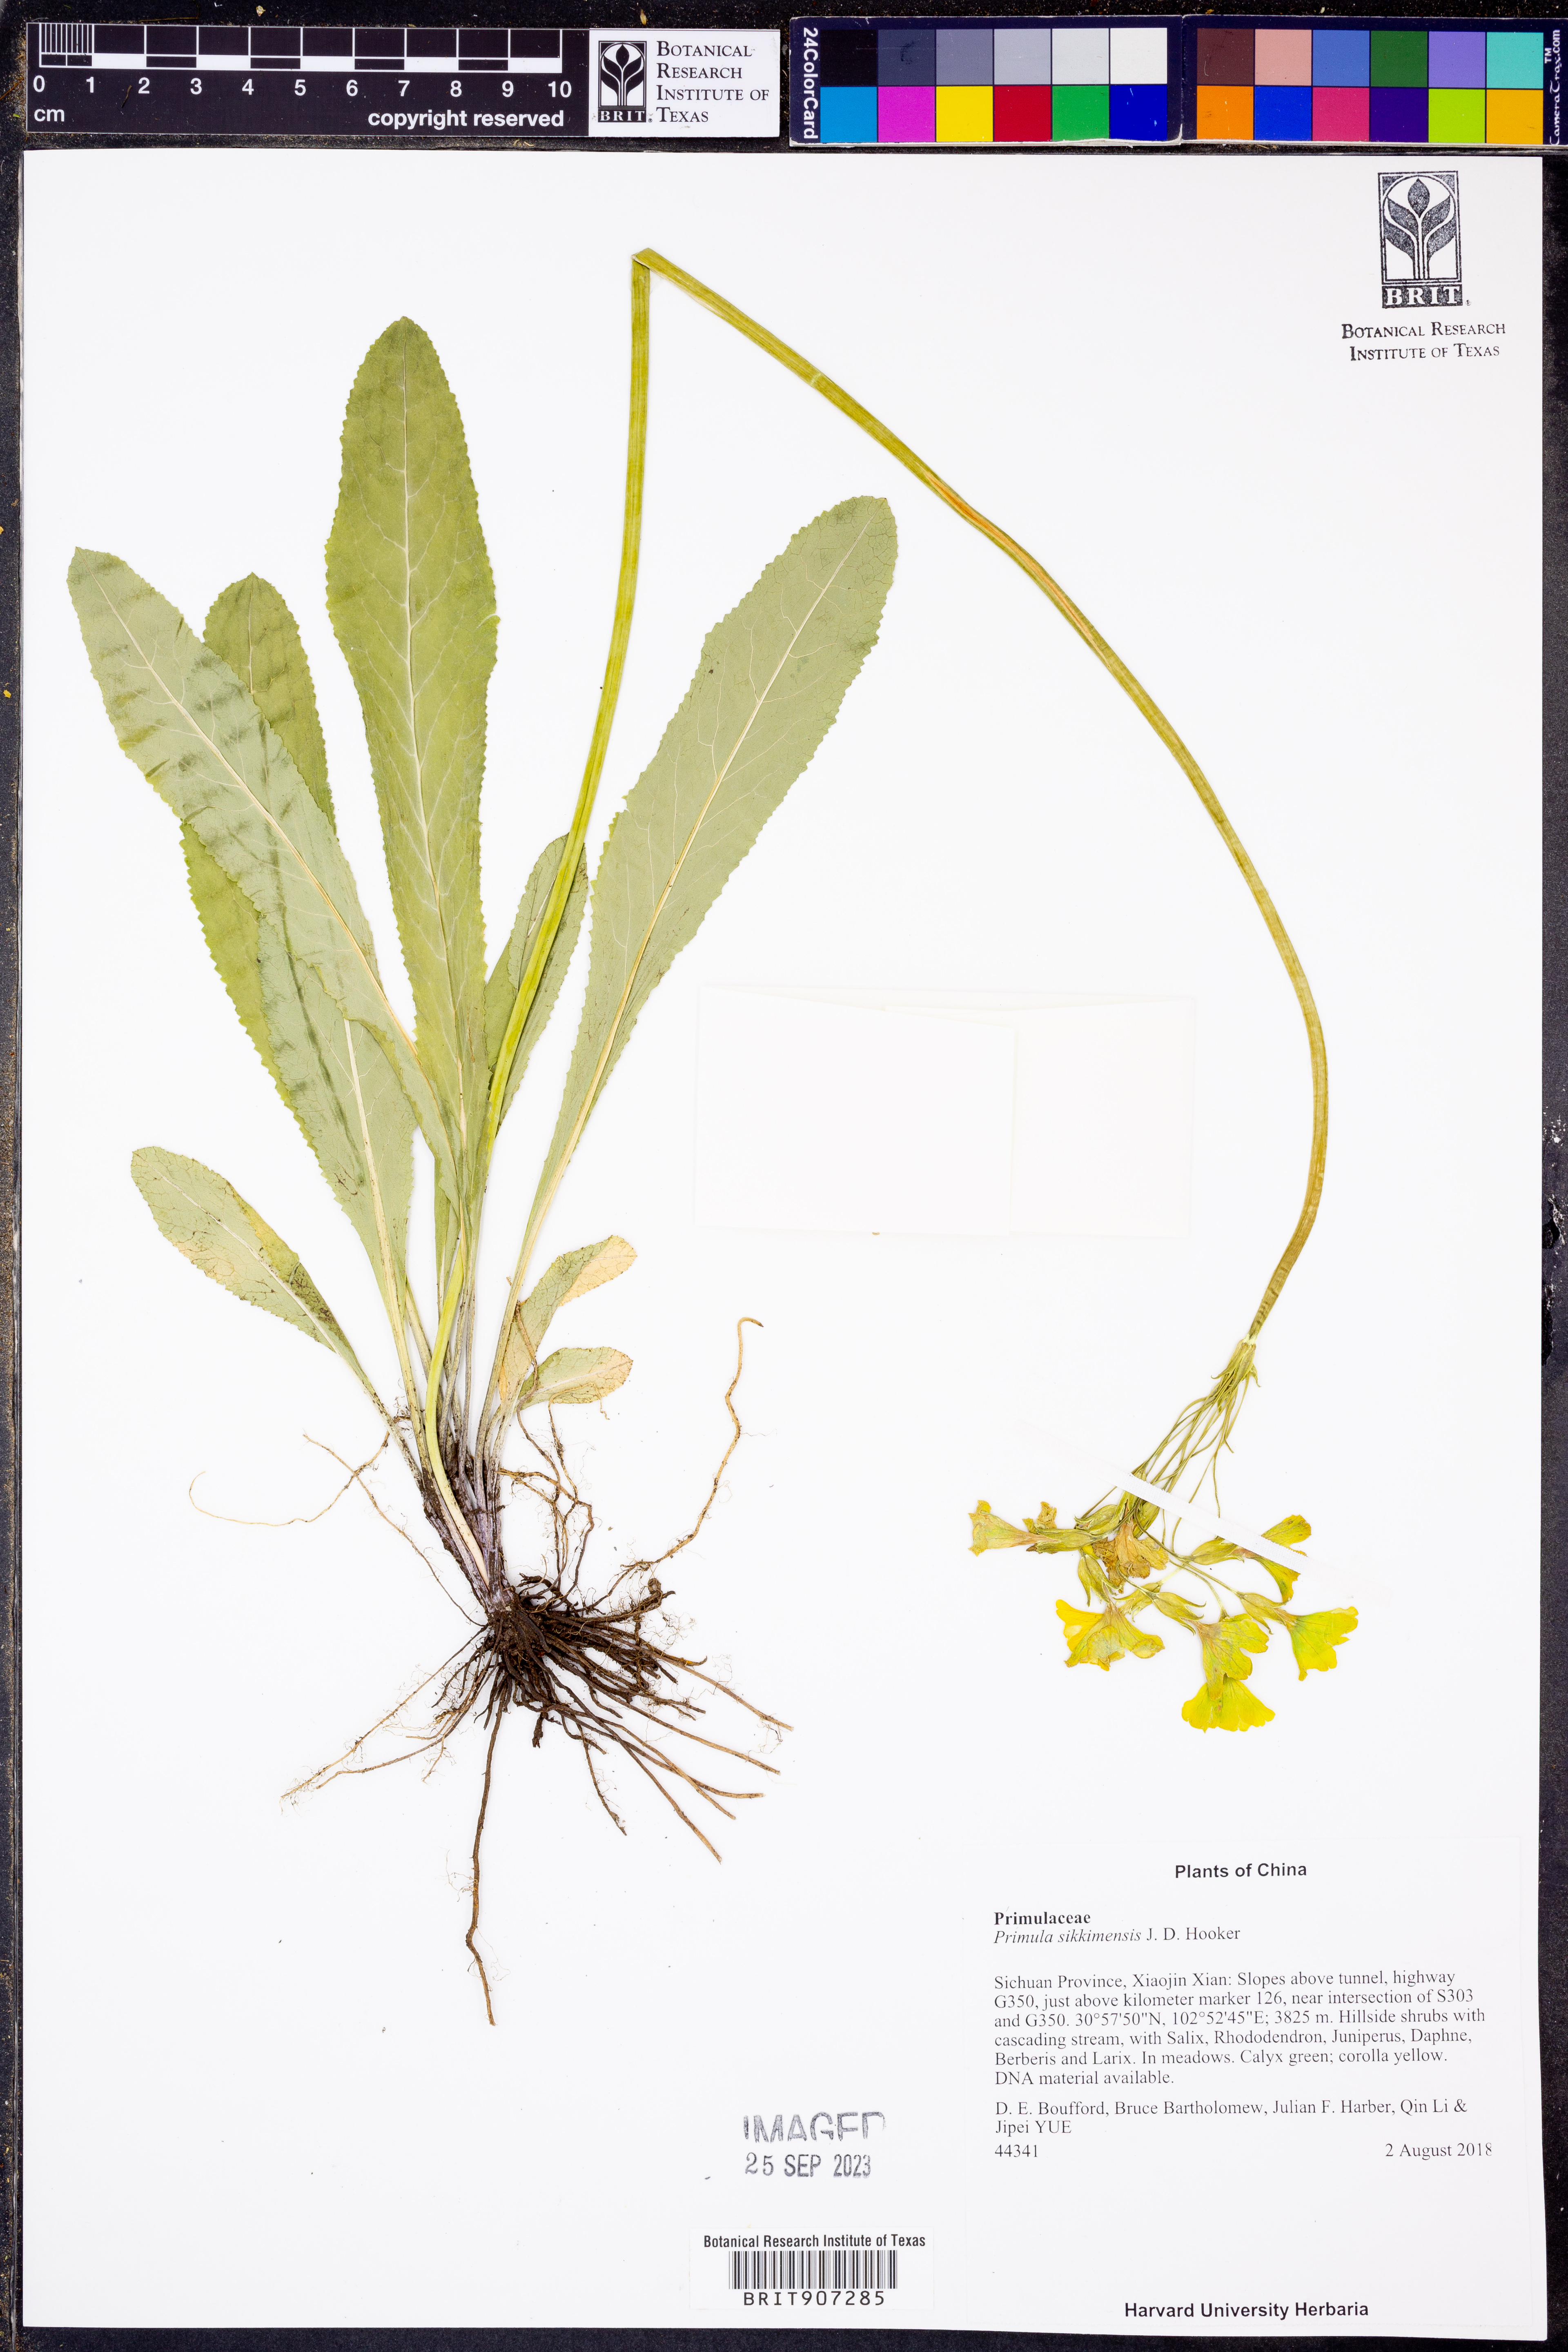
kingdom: Plantae
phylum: Tracheophyta
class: Magnoliopsida
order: Ericales
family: Primulaceae
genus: Primula
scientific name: Primula sikkimensis
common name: Sikkim cowslip
